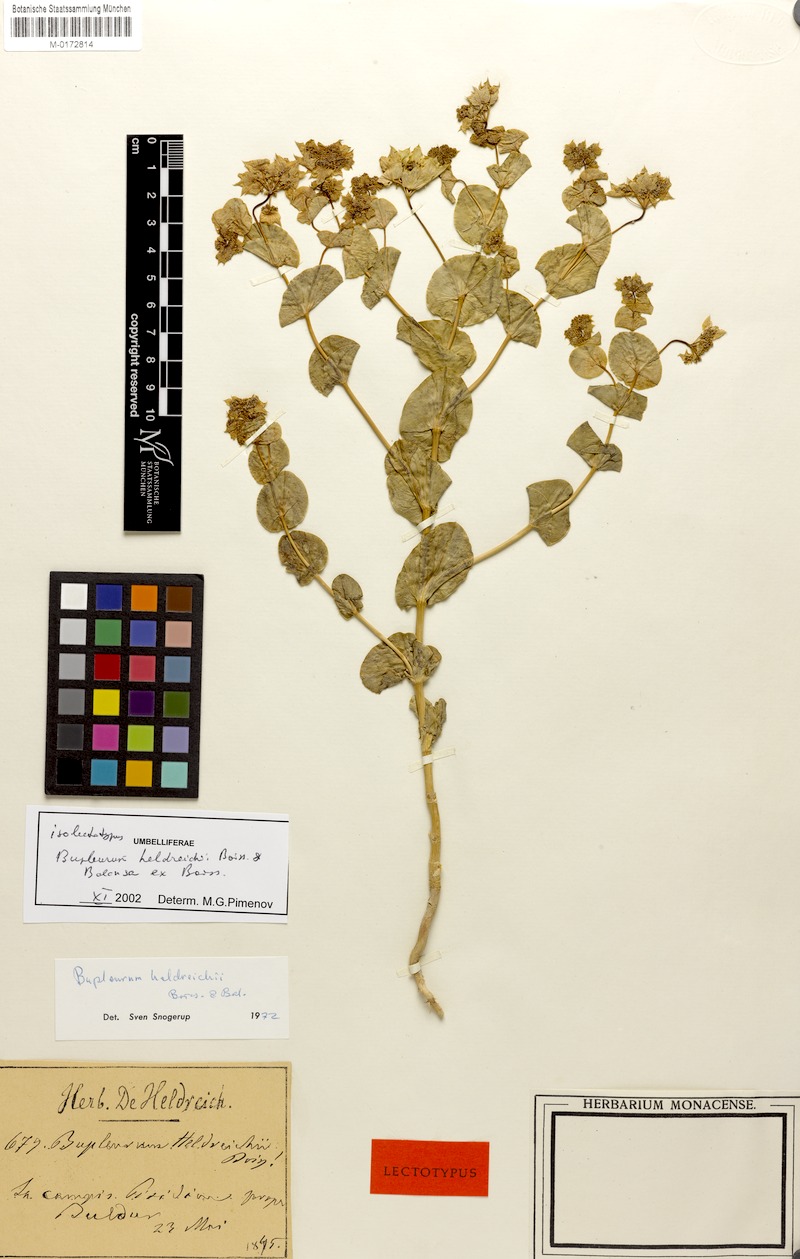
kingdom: Plantae
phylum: Tracheophyta
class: Magnoliopsida
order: Apiales
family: Apiaceae
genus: Bupleurum
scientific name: Bupleurum heldreichii
